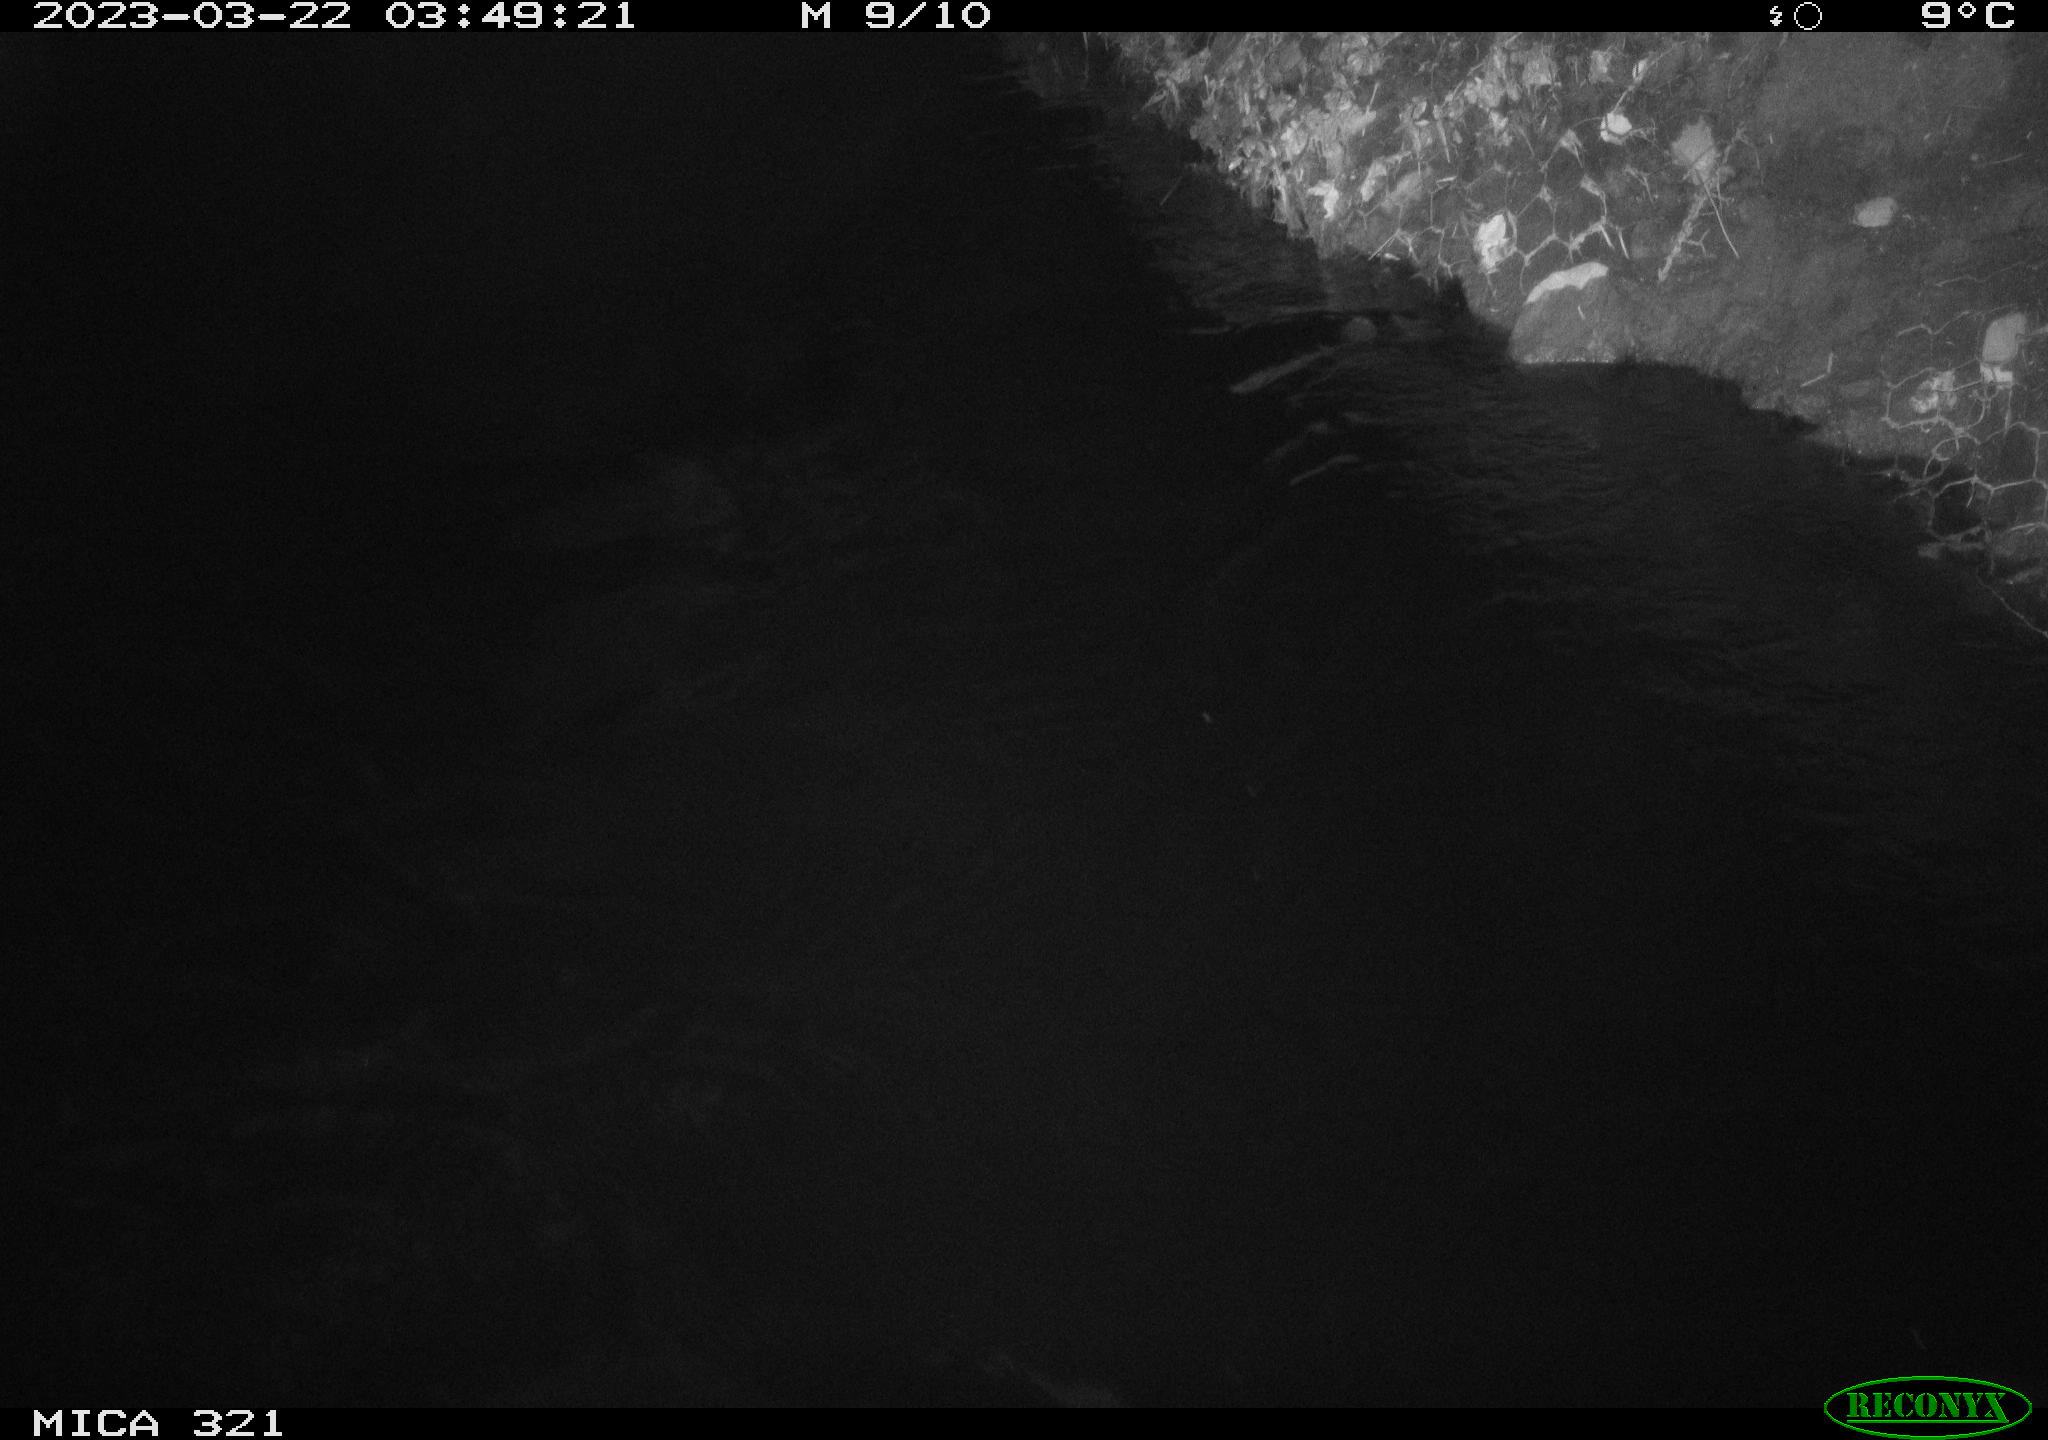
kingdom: Animalia
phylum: Chordata
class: Aves
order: Anseriformes
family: Anatidae
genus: Anas
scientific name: Anas
